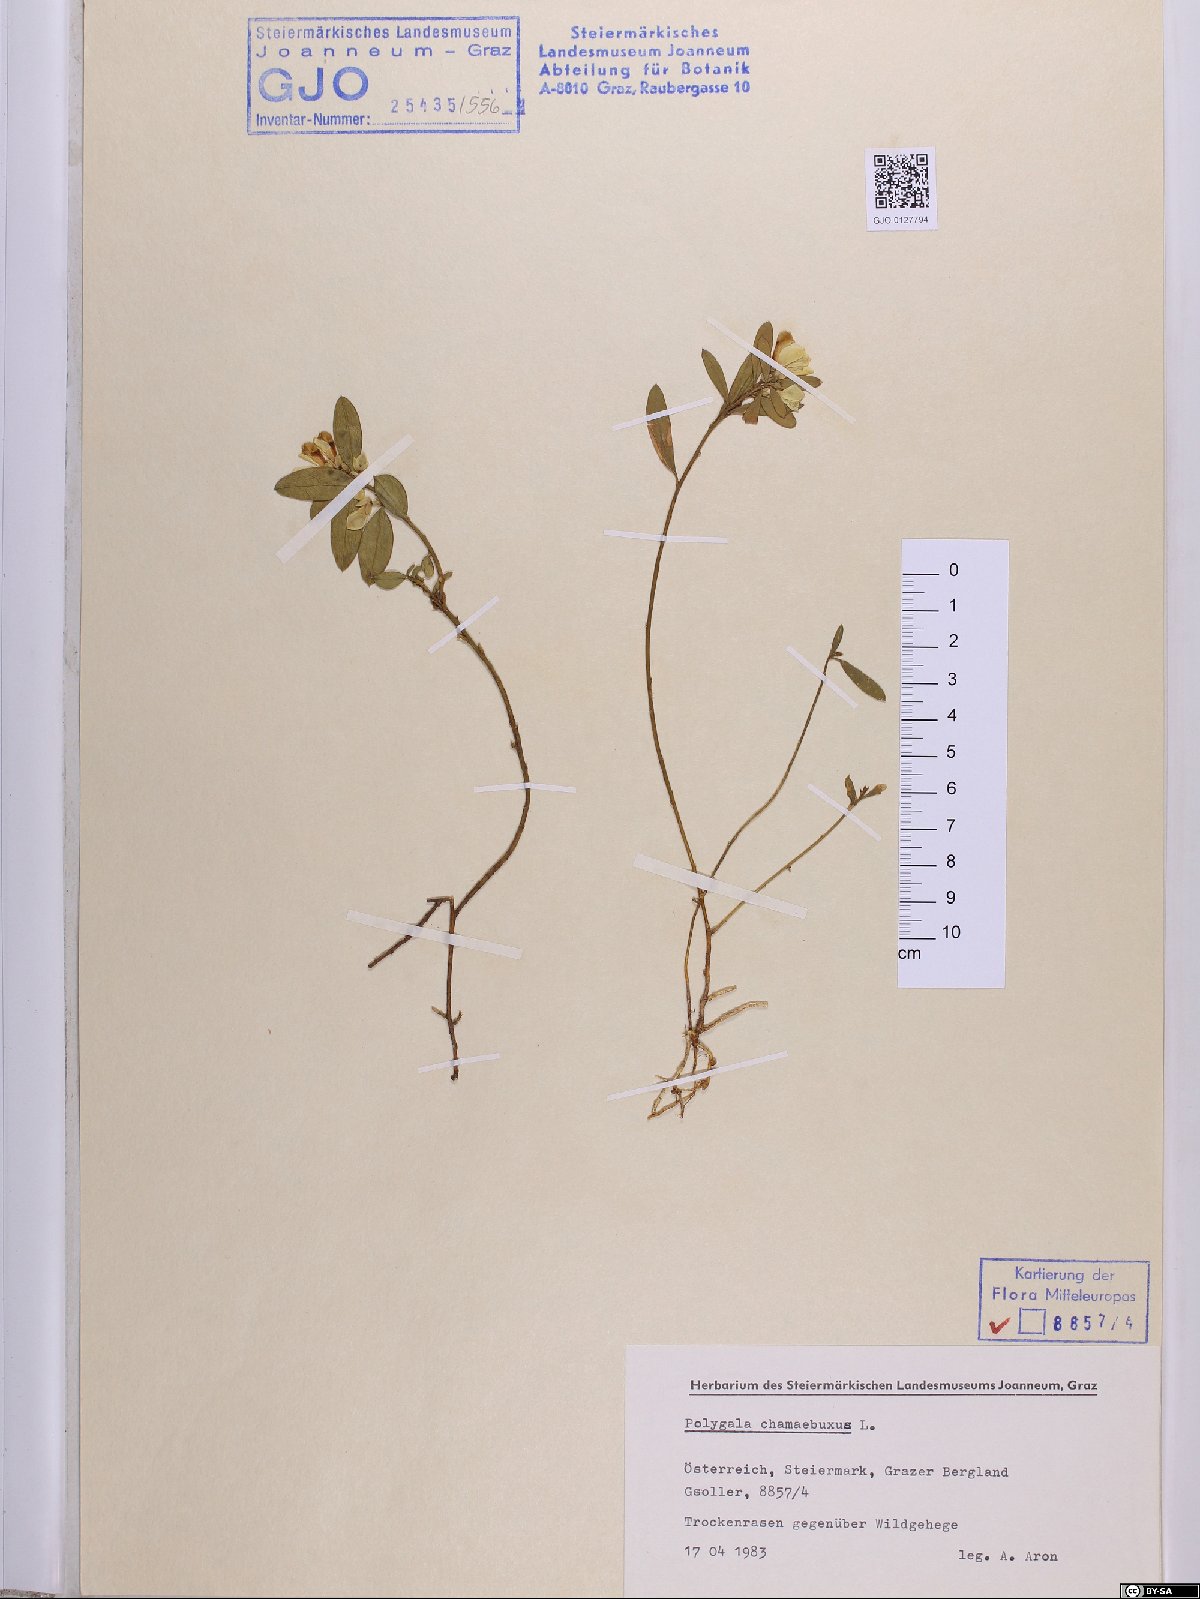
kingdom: Plantae
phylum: Tracheophyta
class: Magnoliopsida
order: Fabales
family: Polygalaceae
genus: Polygaloides
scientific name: Polygaloides chamaebuxus
